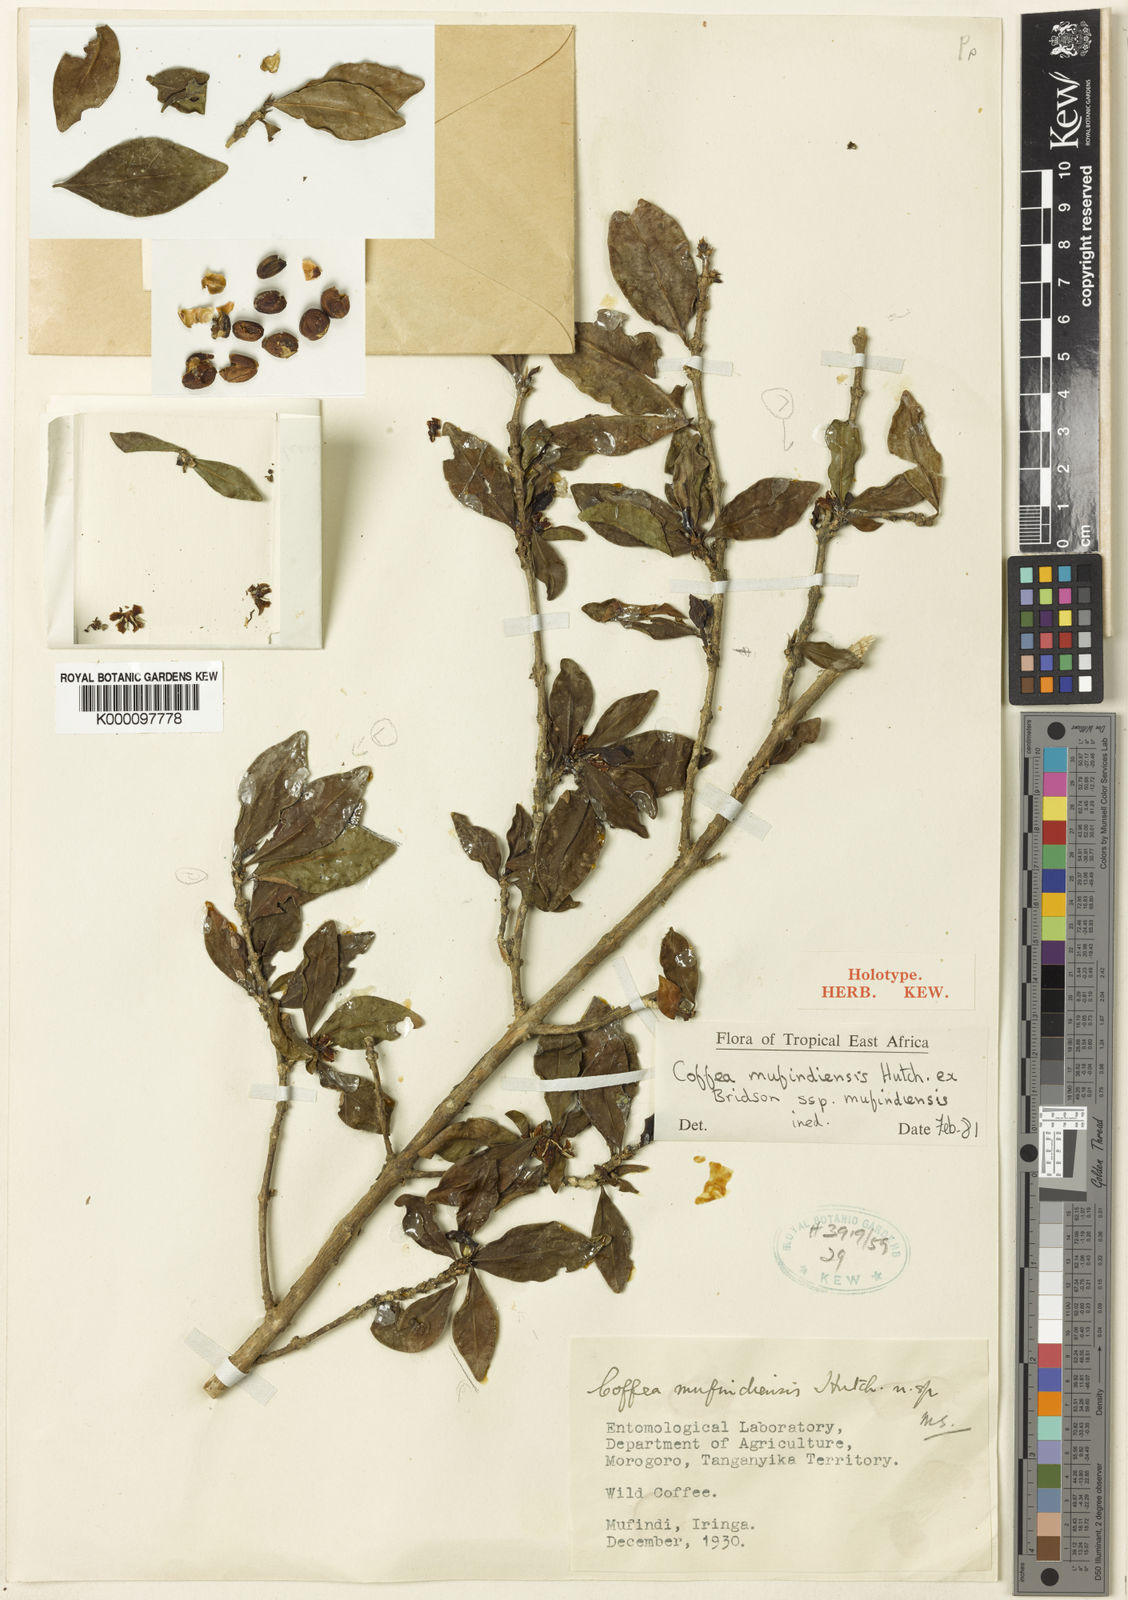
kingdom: Plantae
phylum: Tracheophyta
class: Magnoliopsida
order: Gentianales
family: Rubiaceae
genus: Coffea
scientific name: Coffea mufindiensis
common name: Wild coffee
